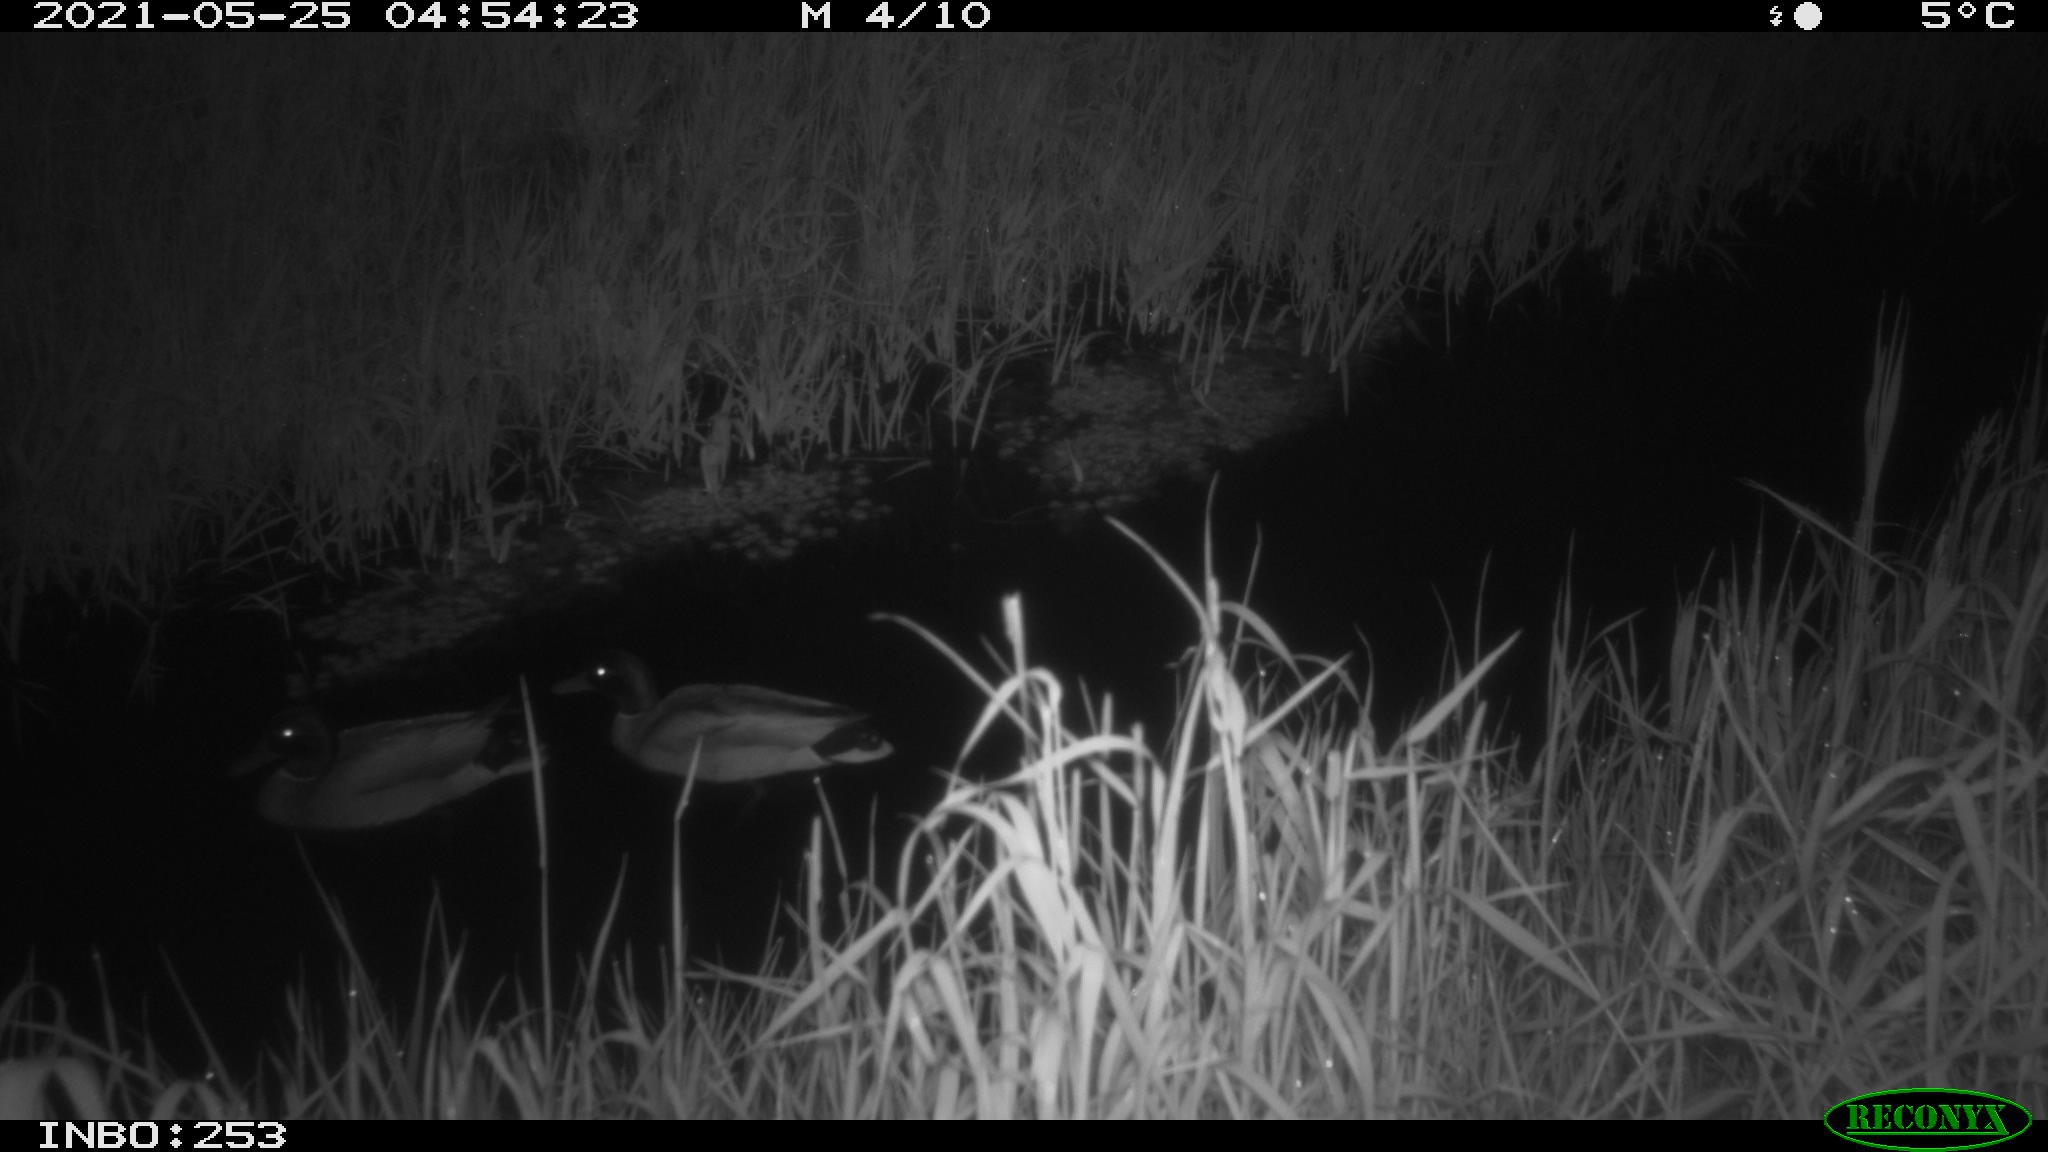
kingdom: Animalia
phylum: Chordata
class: Aves
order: Anseriformes
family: Anatidae
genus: Anas
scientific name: Anas platyrhynchos
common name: Mallard
